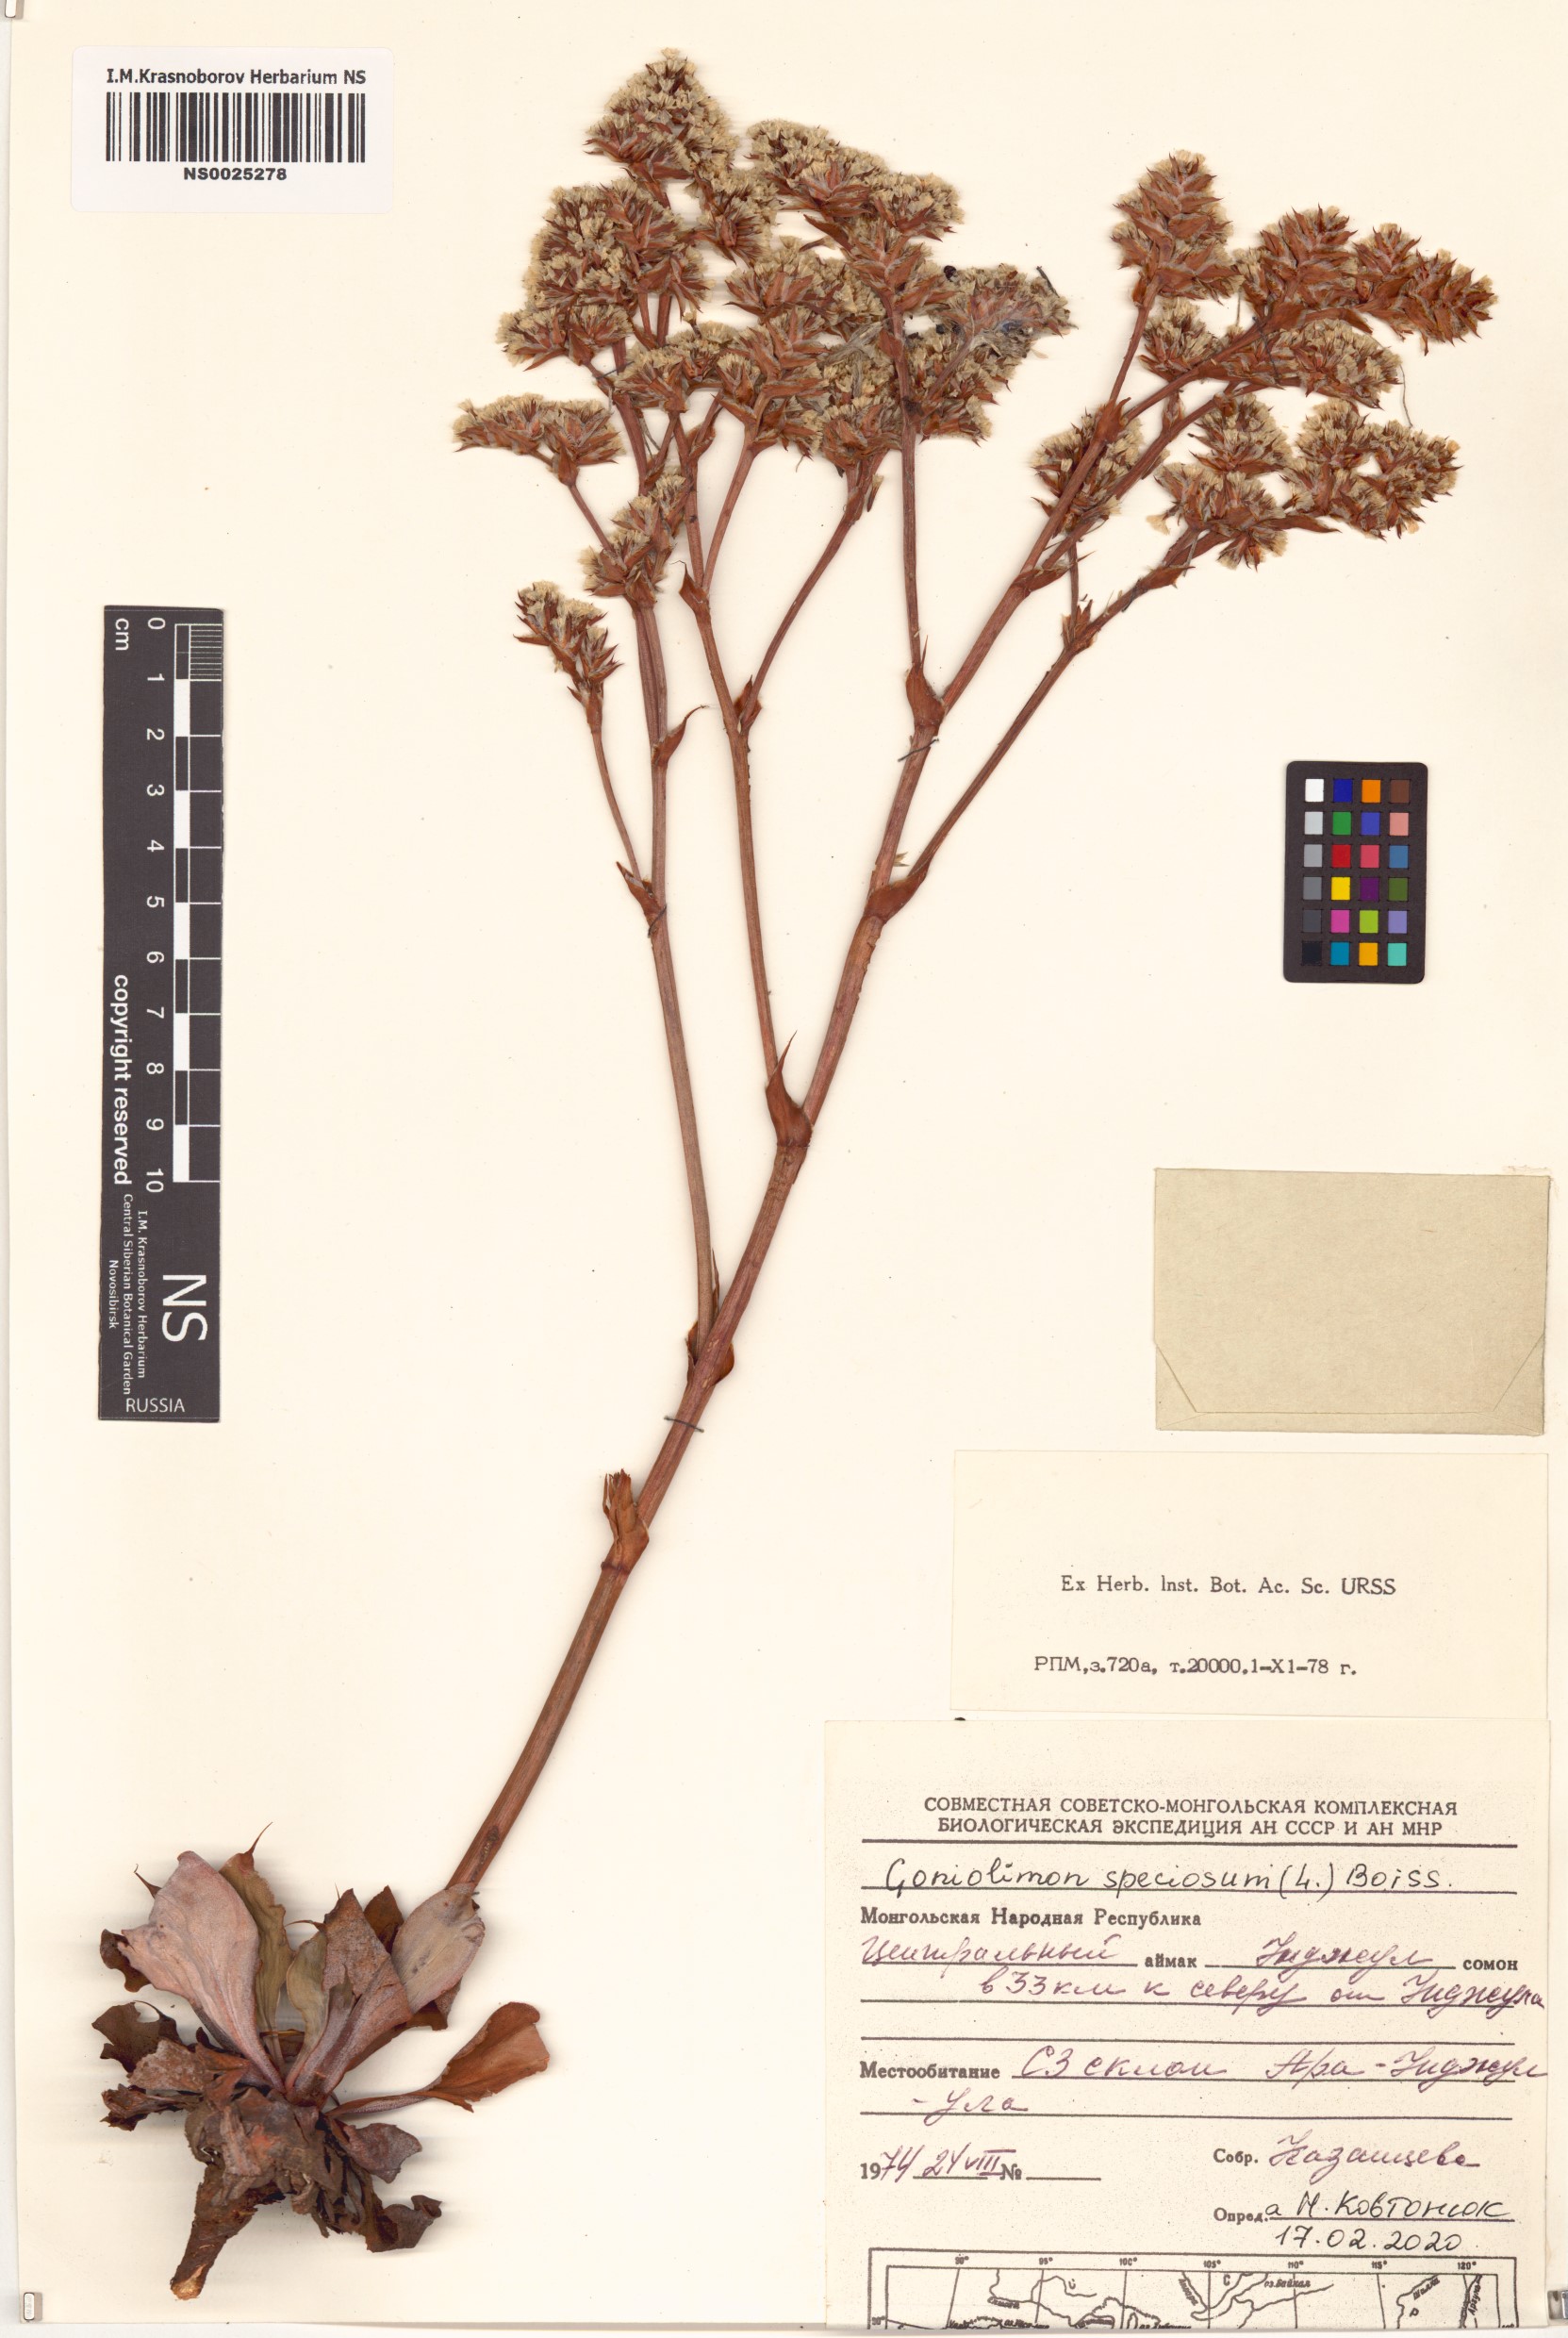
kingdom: Plantae
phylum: Tracheophyta
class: Magnoliopsida
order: Caryophyllales
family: Plumbaginaceae
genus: Goniolimon
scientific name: Goniolimon speciosum
